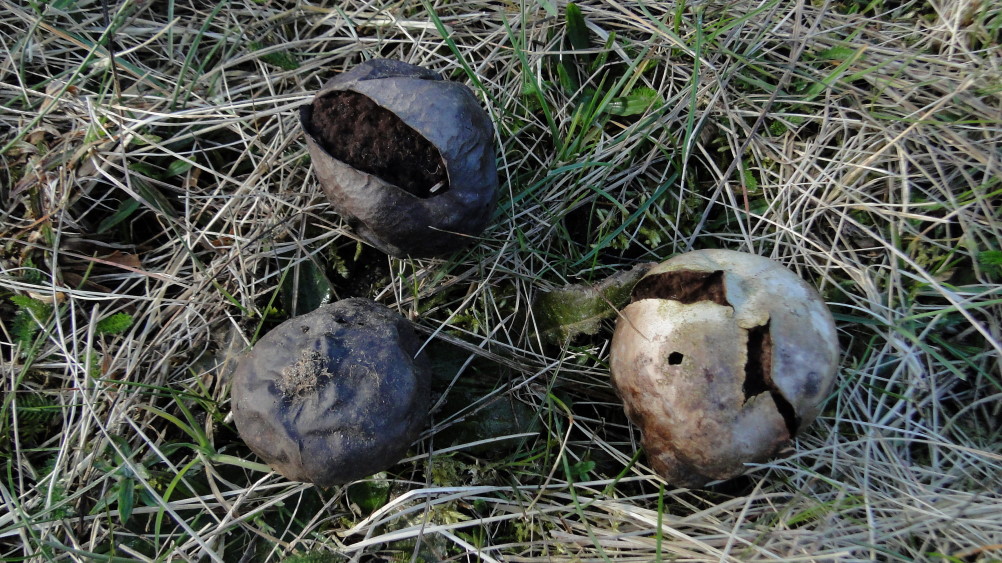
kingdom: Fungi
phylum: Basidiomycota
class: Agaricomycetes
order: Agaricales
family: Lycoperdaceae
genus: Bovista
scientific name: Bovista nigrescens
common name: sortagtig bovist
